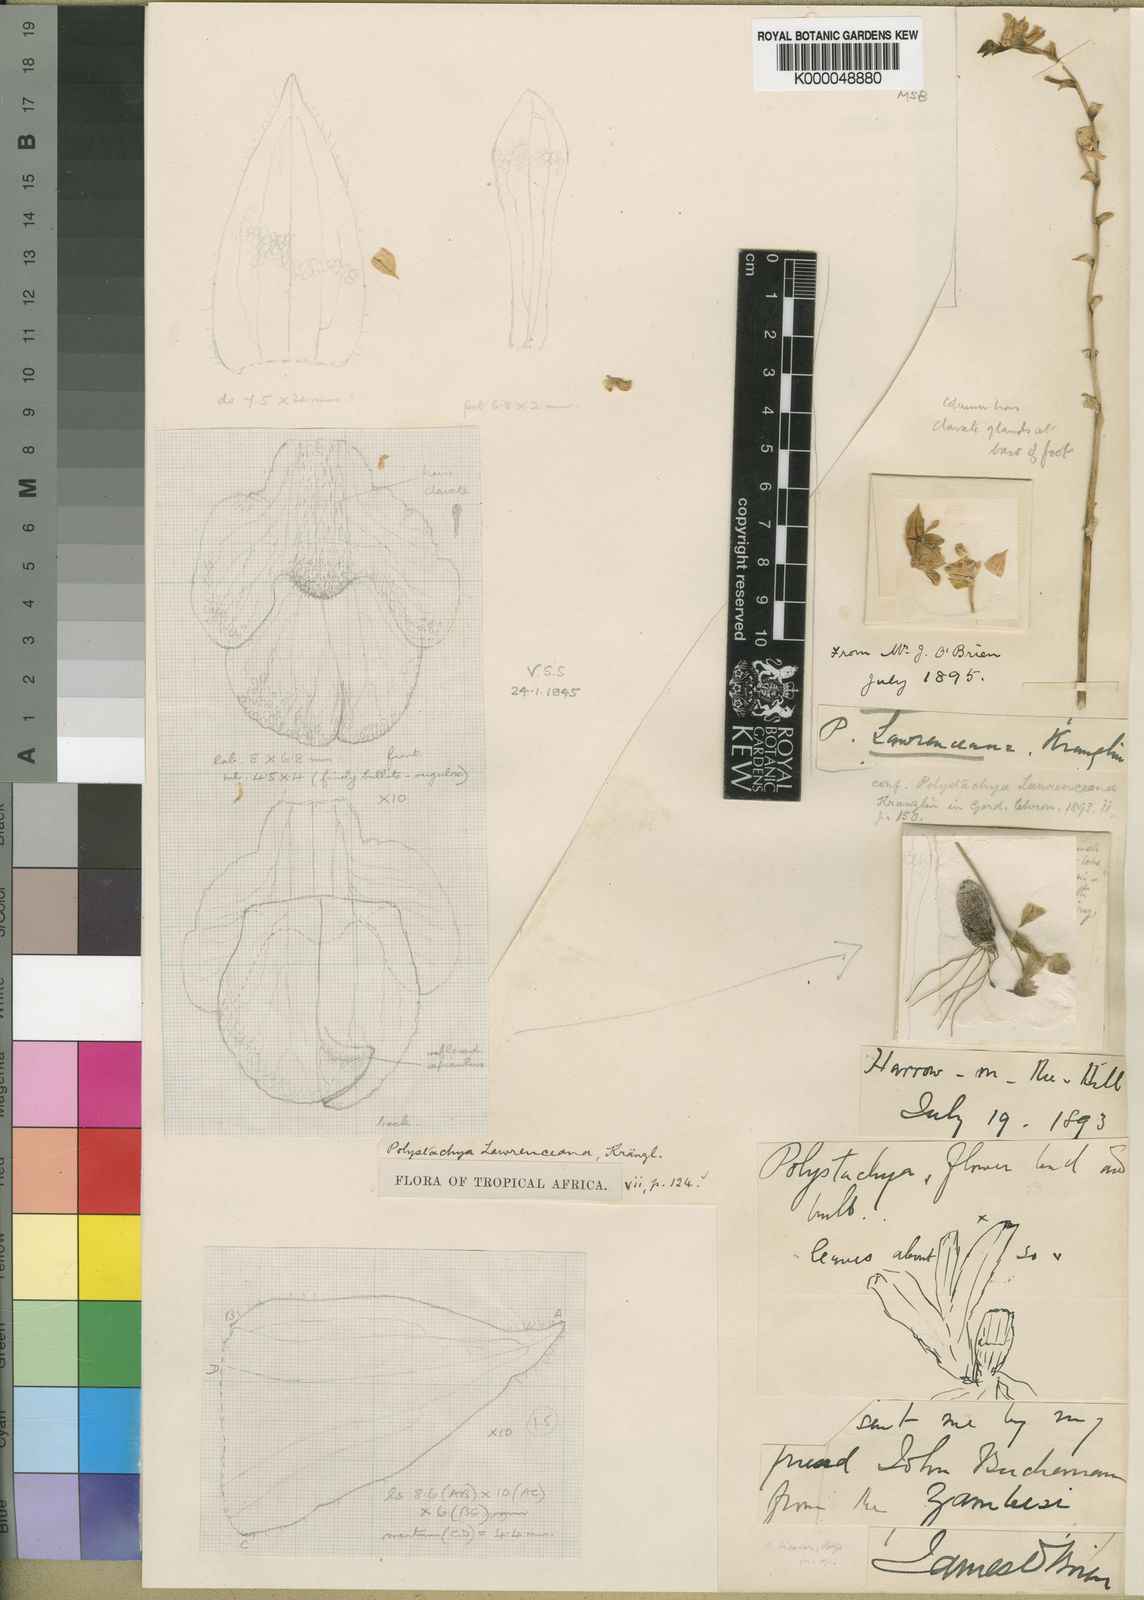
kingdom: Plantae
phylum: Tracheophyta
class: Liliopsida
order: Asparagales
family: Orchidaceae
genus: Polystachya
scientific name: Polystachya lawrenceana
